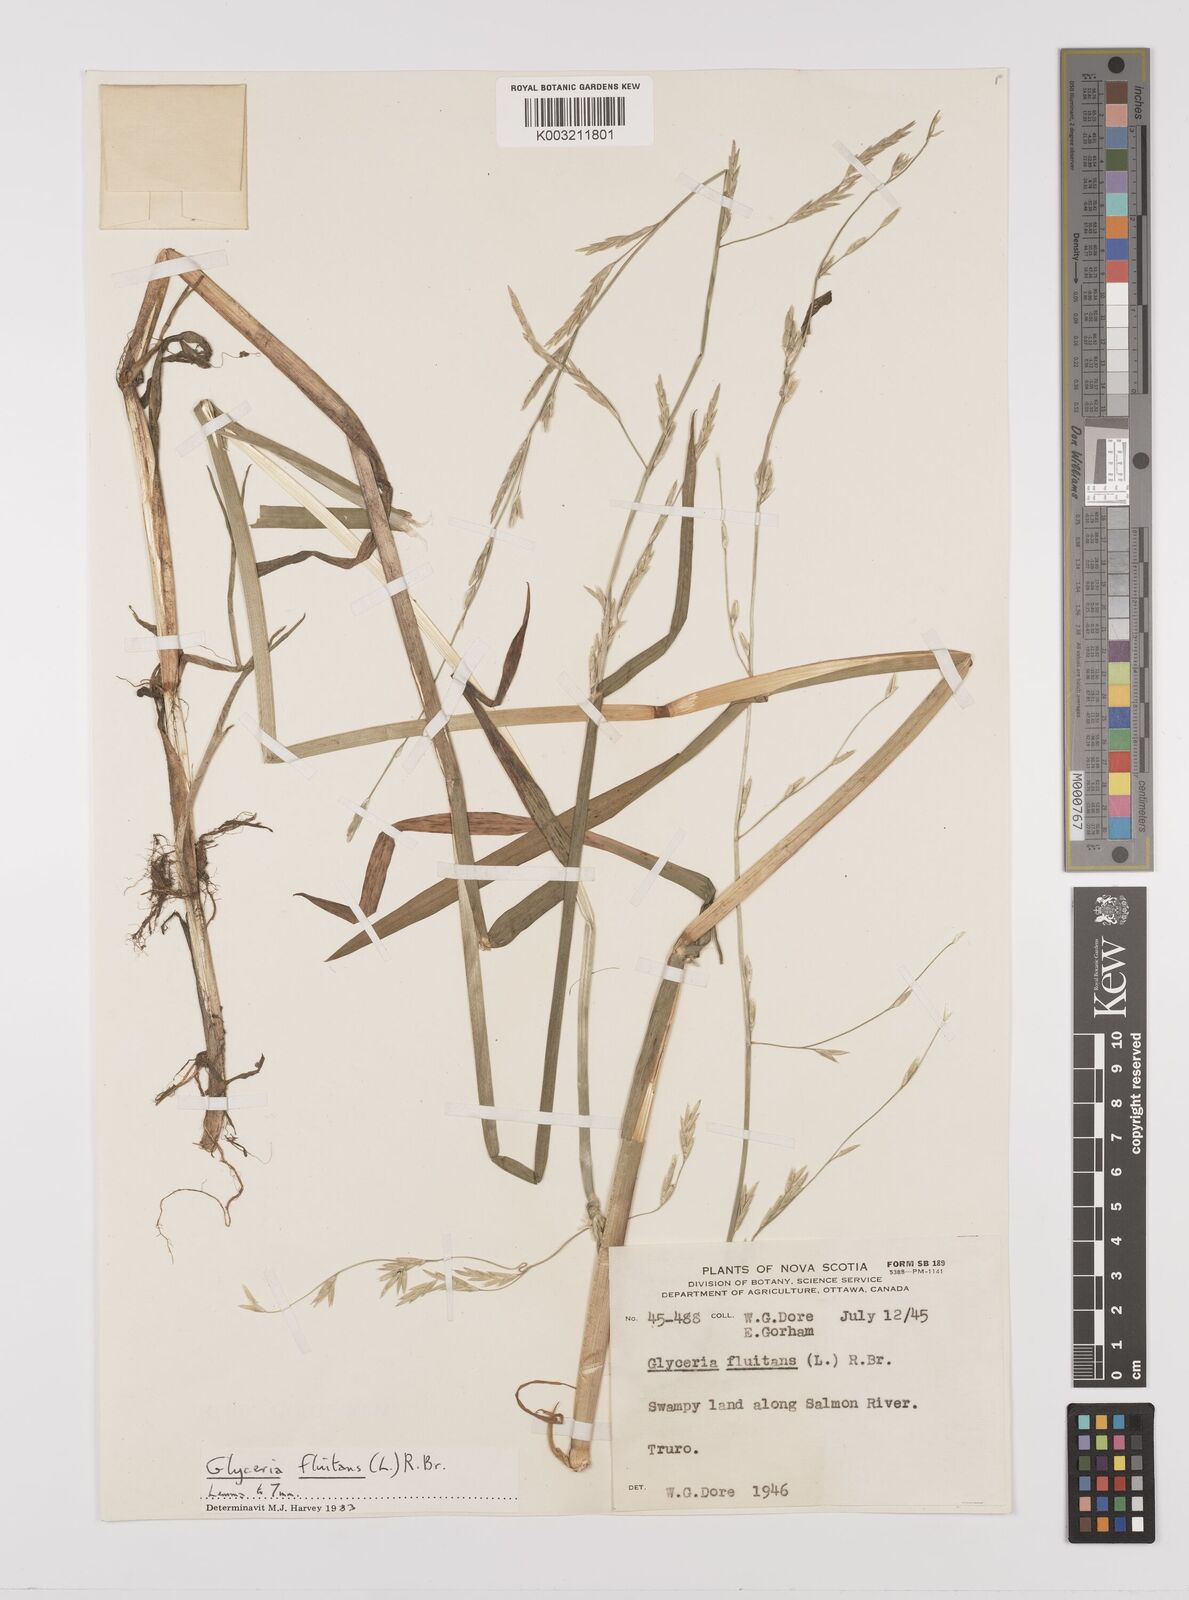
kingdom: Plantae
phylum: Tracheophyta
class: Liliopsida
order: Poales
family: Poaceae
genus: Glyceria
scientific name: Glyceria fluitans
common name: Floating sweet-grass
